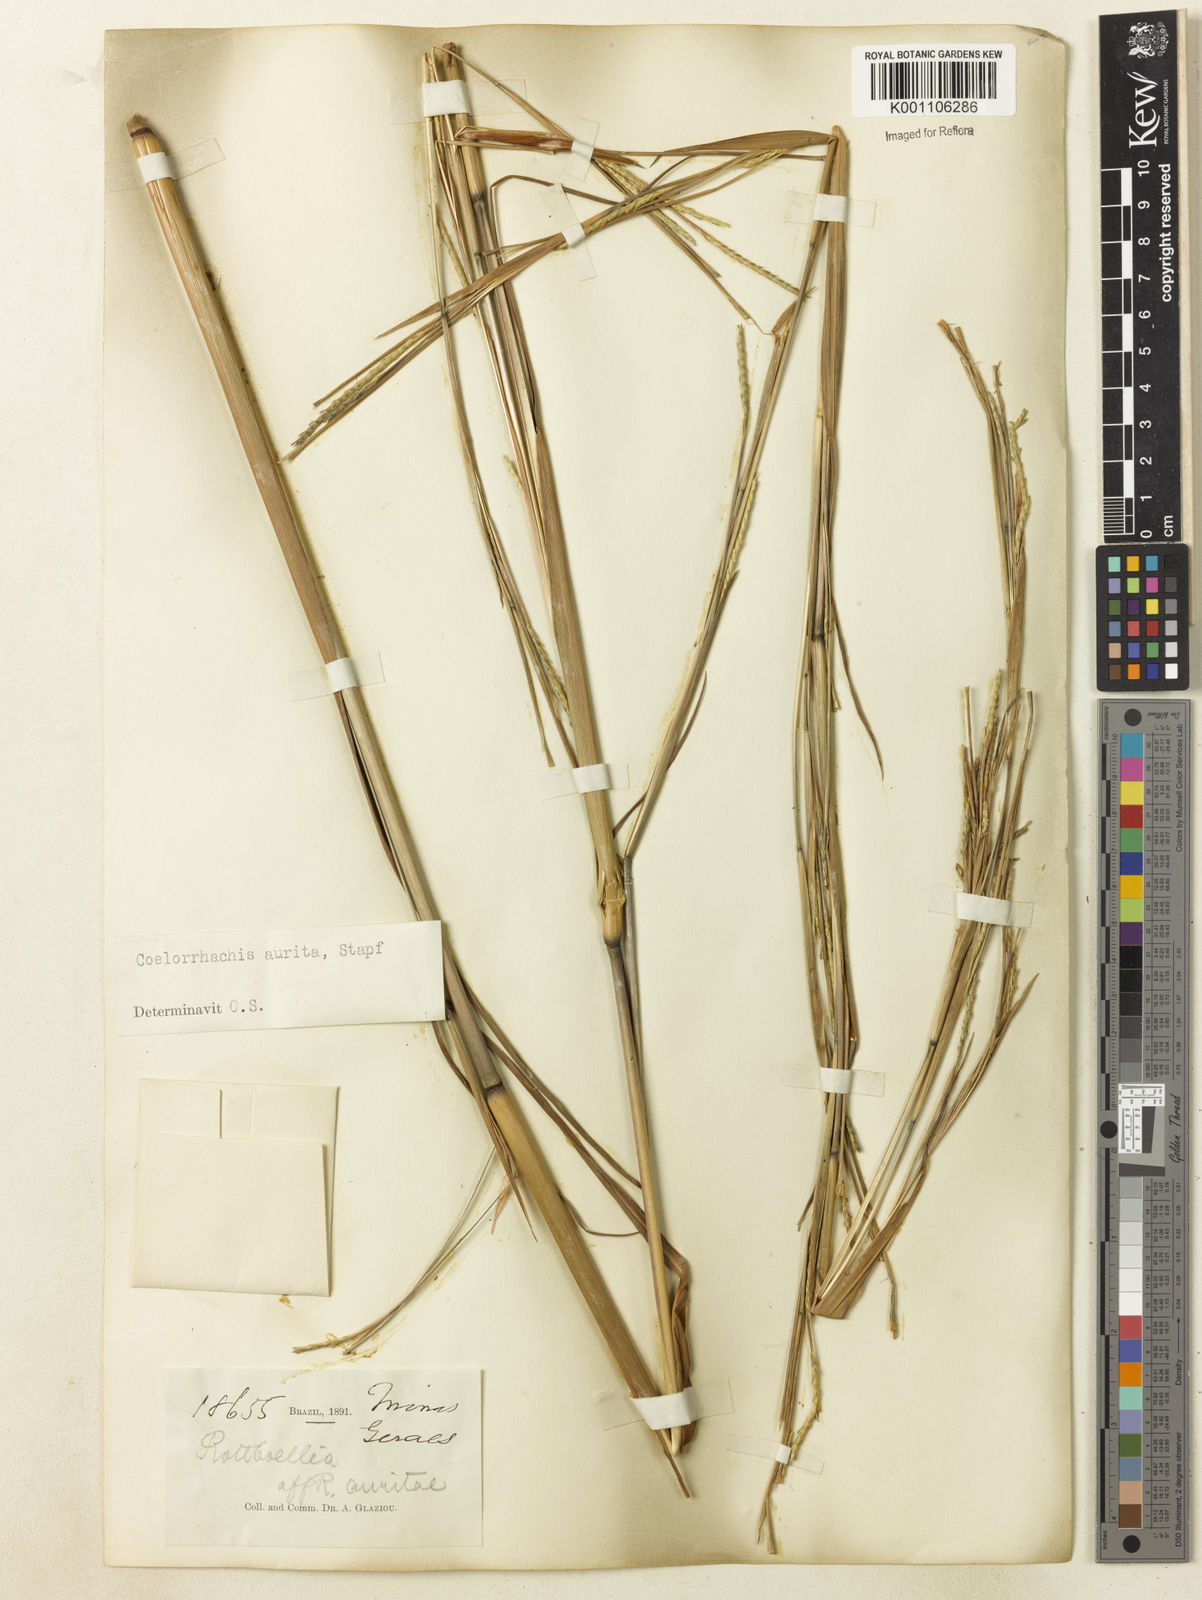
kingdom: Plantae
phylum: Tracheophyta
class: Liliopsida
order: Poales
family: Poaceae
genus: Rottboellia
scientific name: Rottboellia aurita
